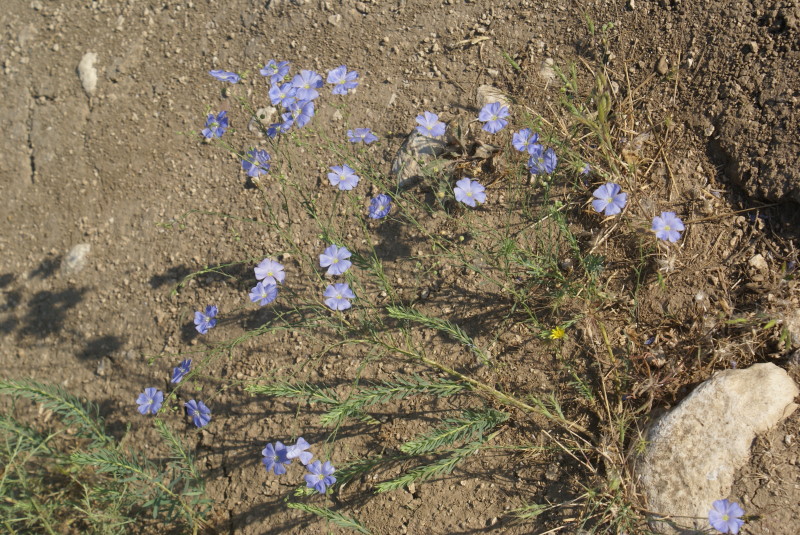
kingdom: Plantae
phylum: Tracheophyta
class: Magnoliopsida
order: Malpighiales
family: Linaceae
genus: Linum
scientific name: Linum usitatissimum
